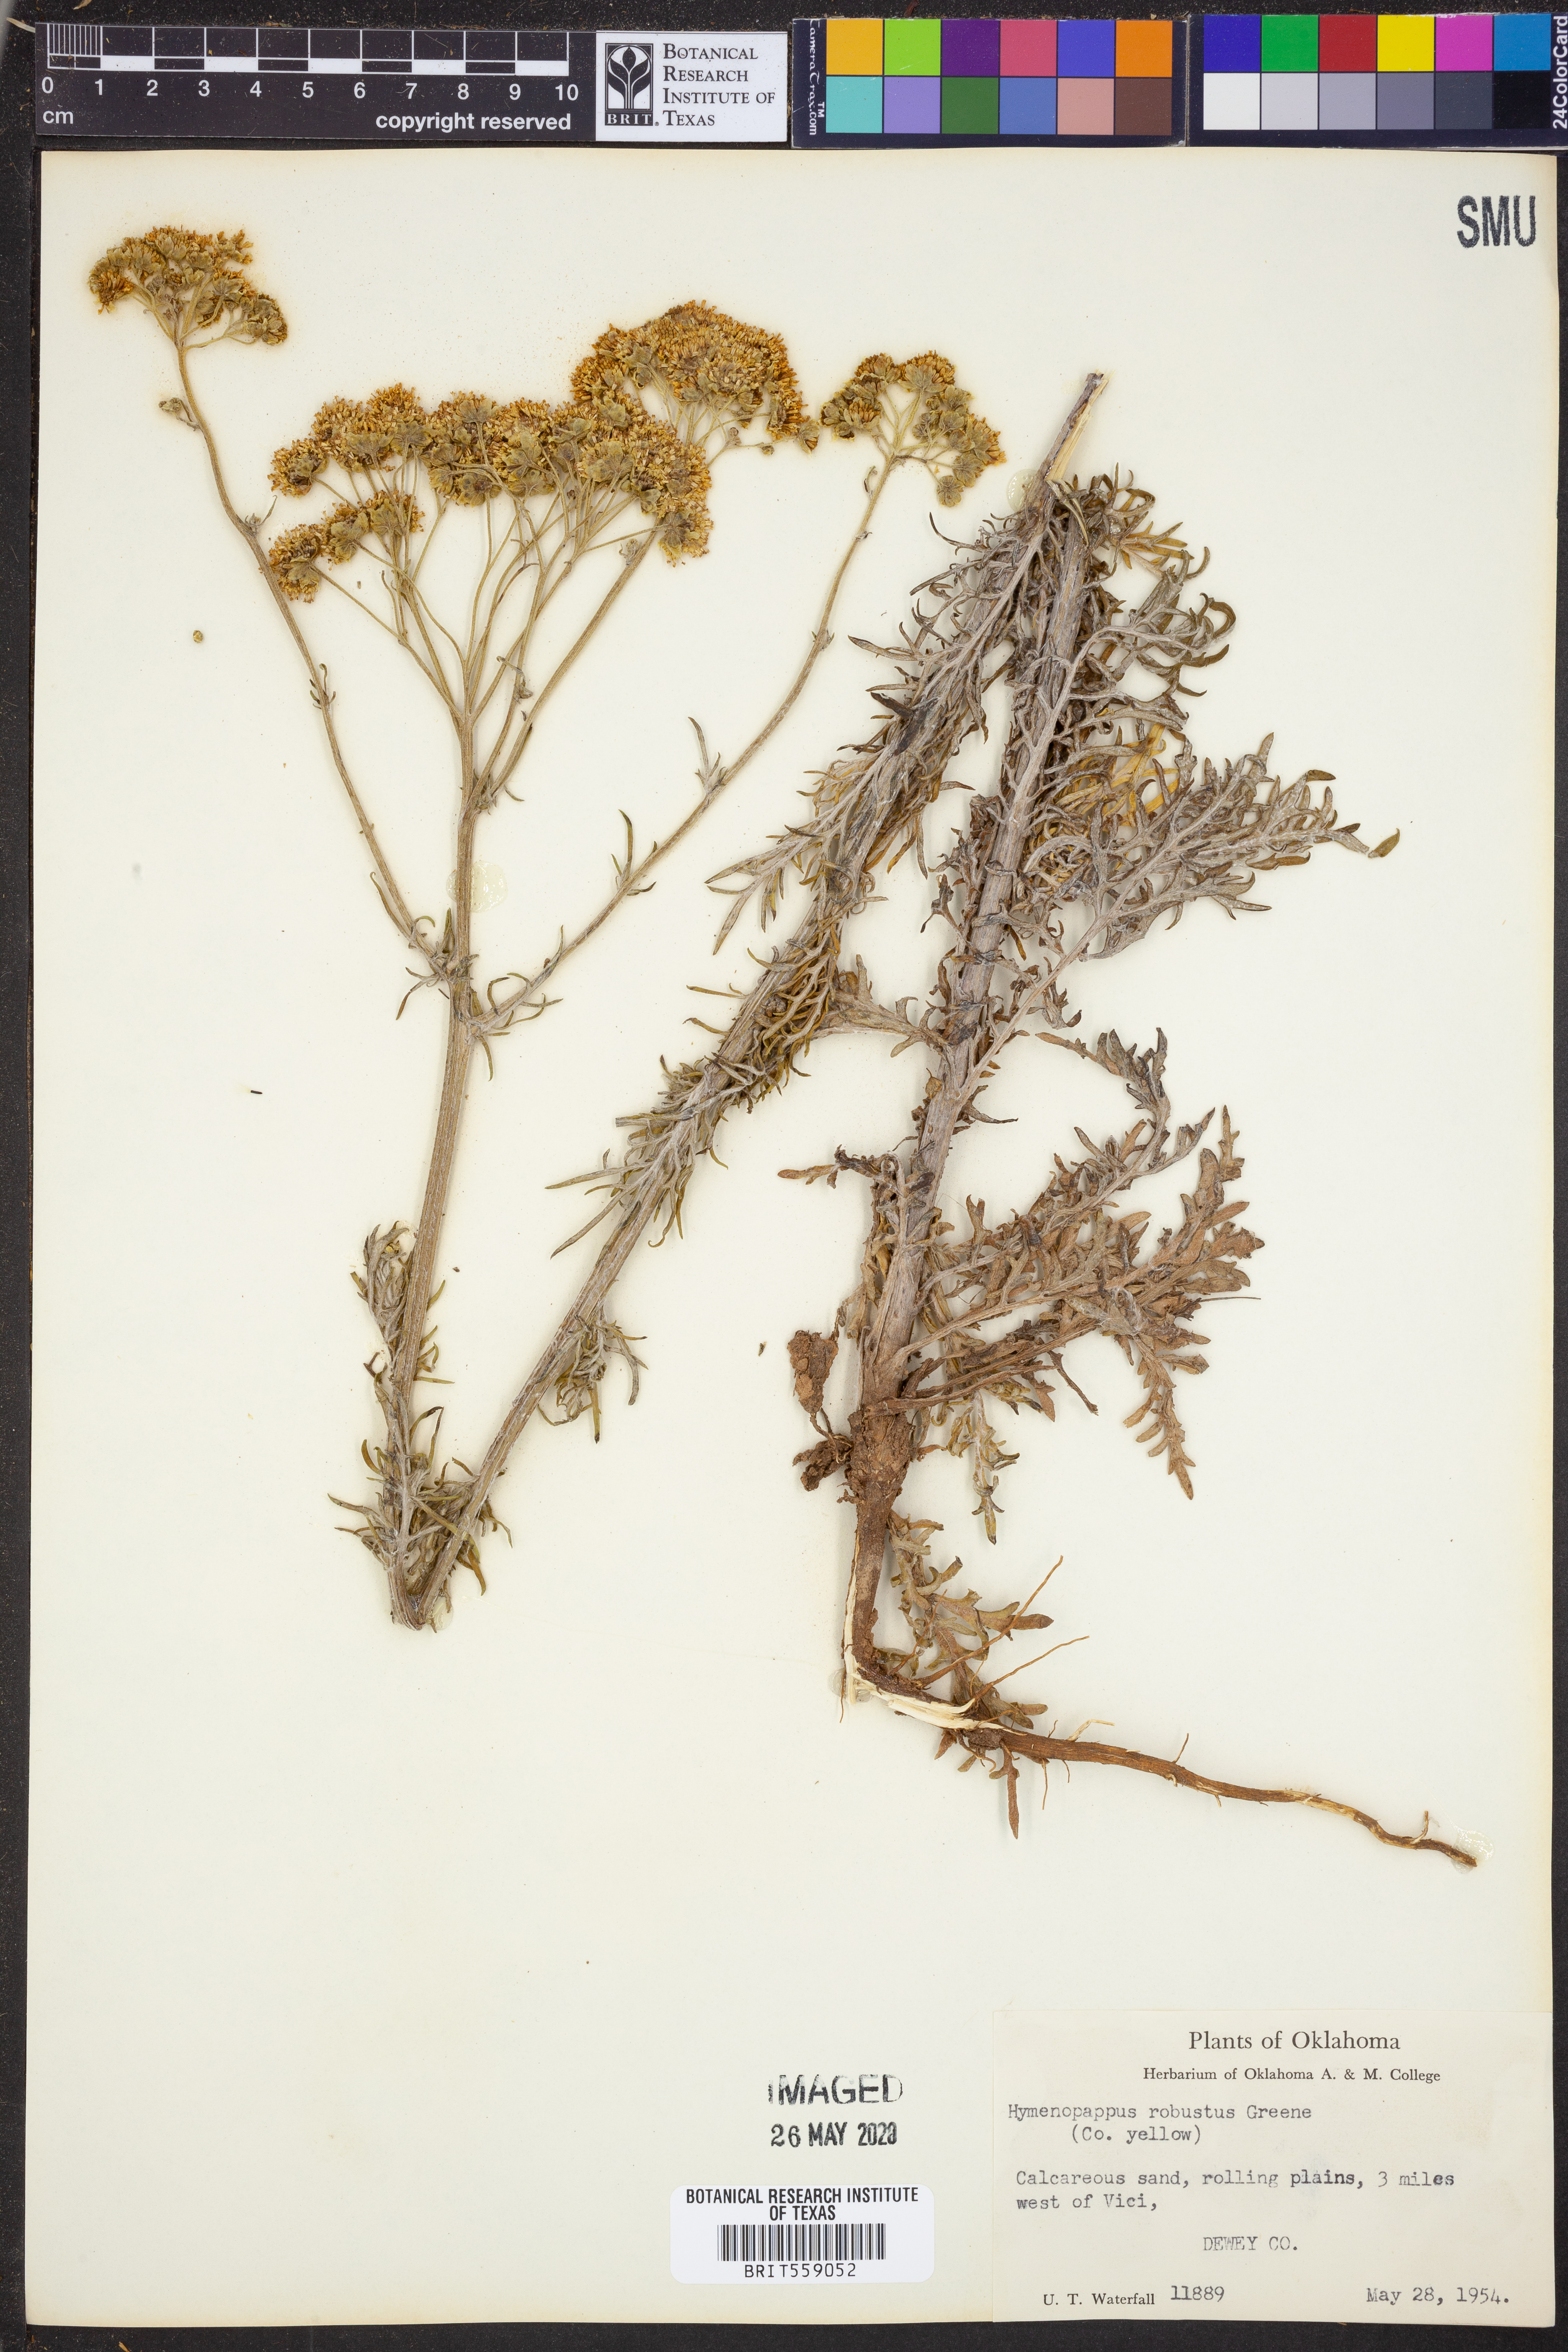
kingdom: Plantae
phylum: Tracheophyta
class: Magnoliopsida
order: Asterales
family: Asteraceae
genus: Hymenopappus
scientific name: Hymenopappus flavescens
